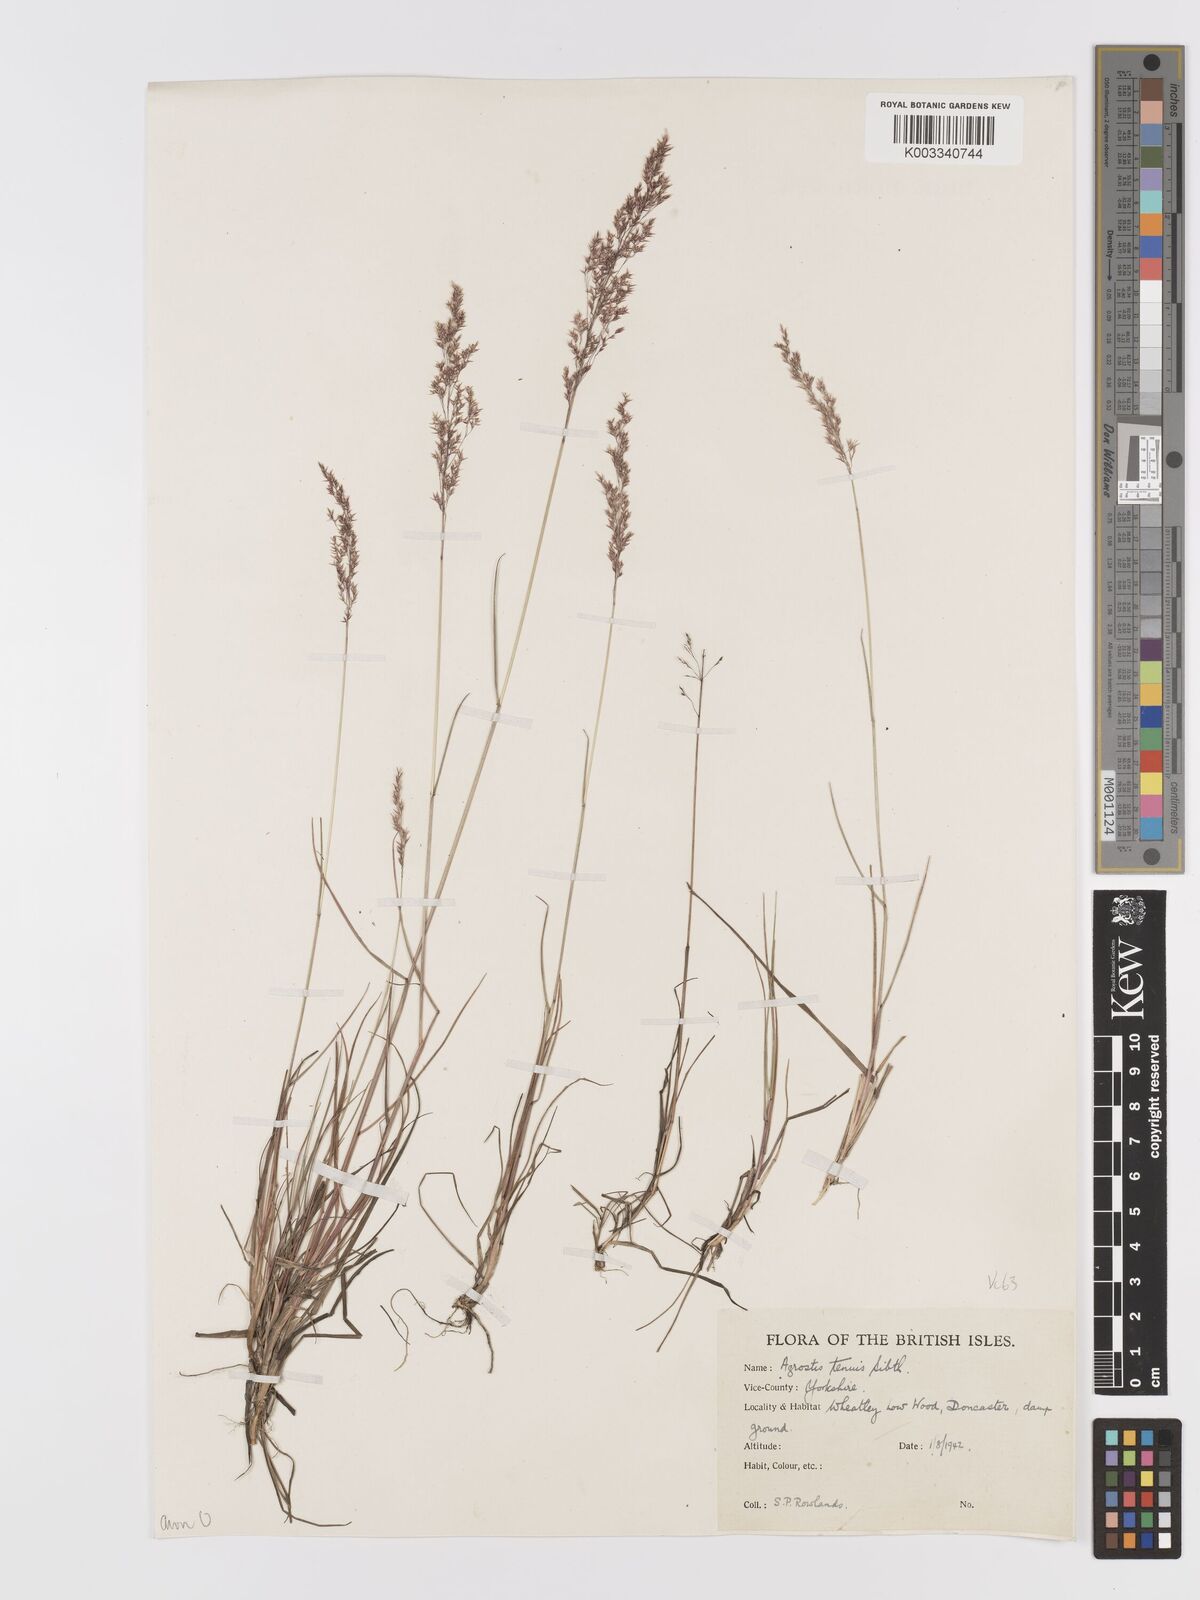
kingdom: Plantae
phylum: Tracheophyta
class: Liliopsida
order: Poales
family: Poaceae
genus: Agrostis
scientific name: Agrostis capillaris
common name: Colonial bentgrass
